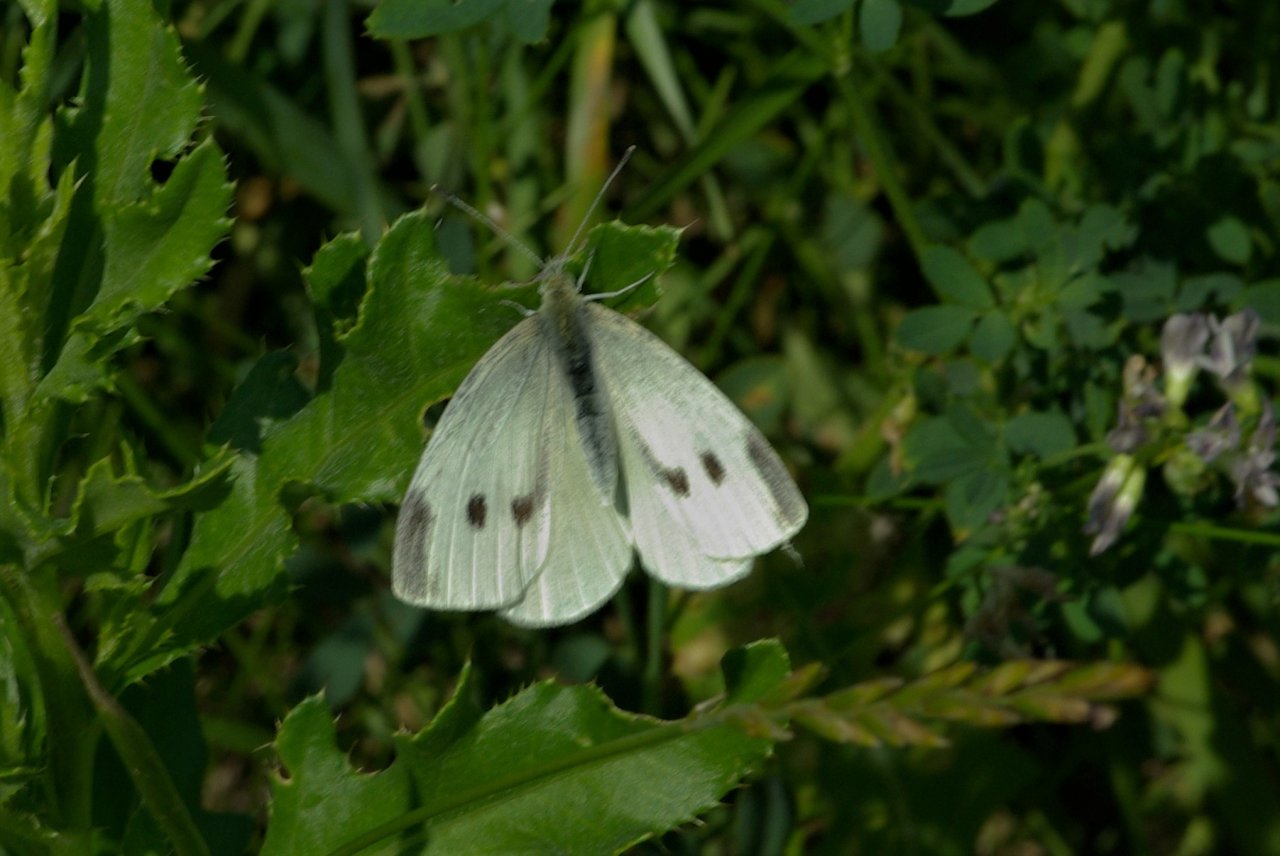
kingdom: Animalia
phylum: Arthropoda
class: Insecta
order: Lepidoptera
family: Pieridae
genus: Pieris
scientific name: Pieris rapae
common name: Cabbage White
